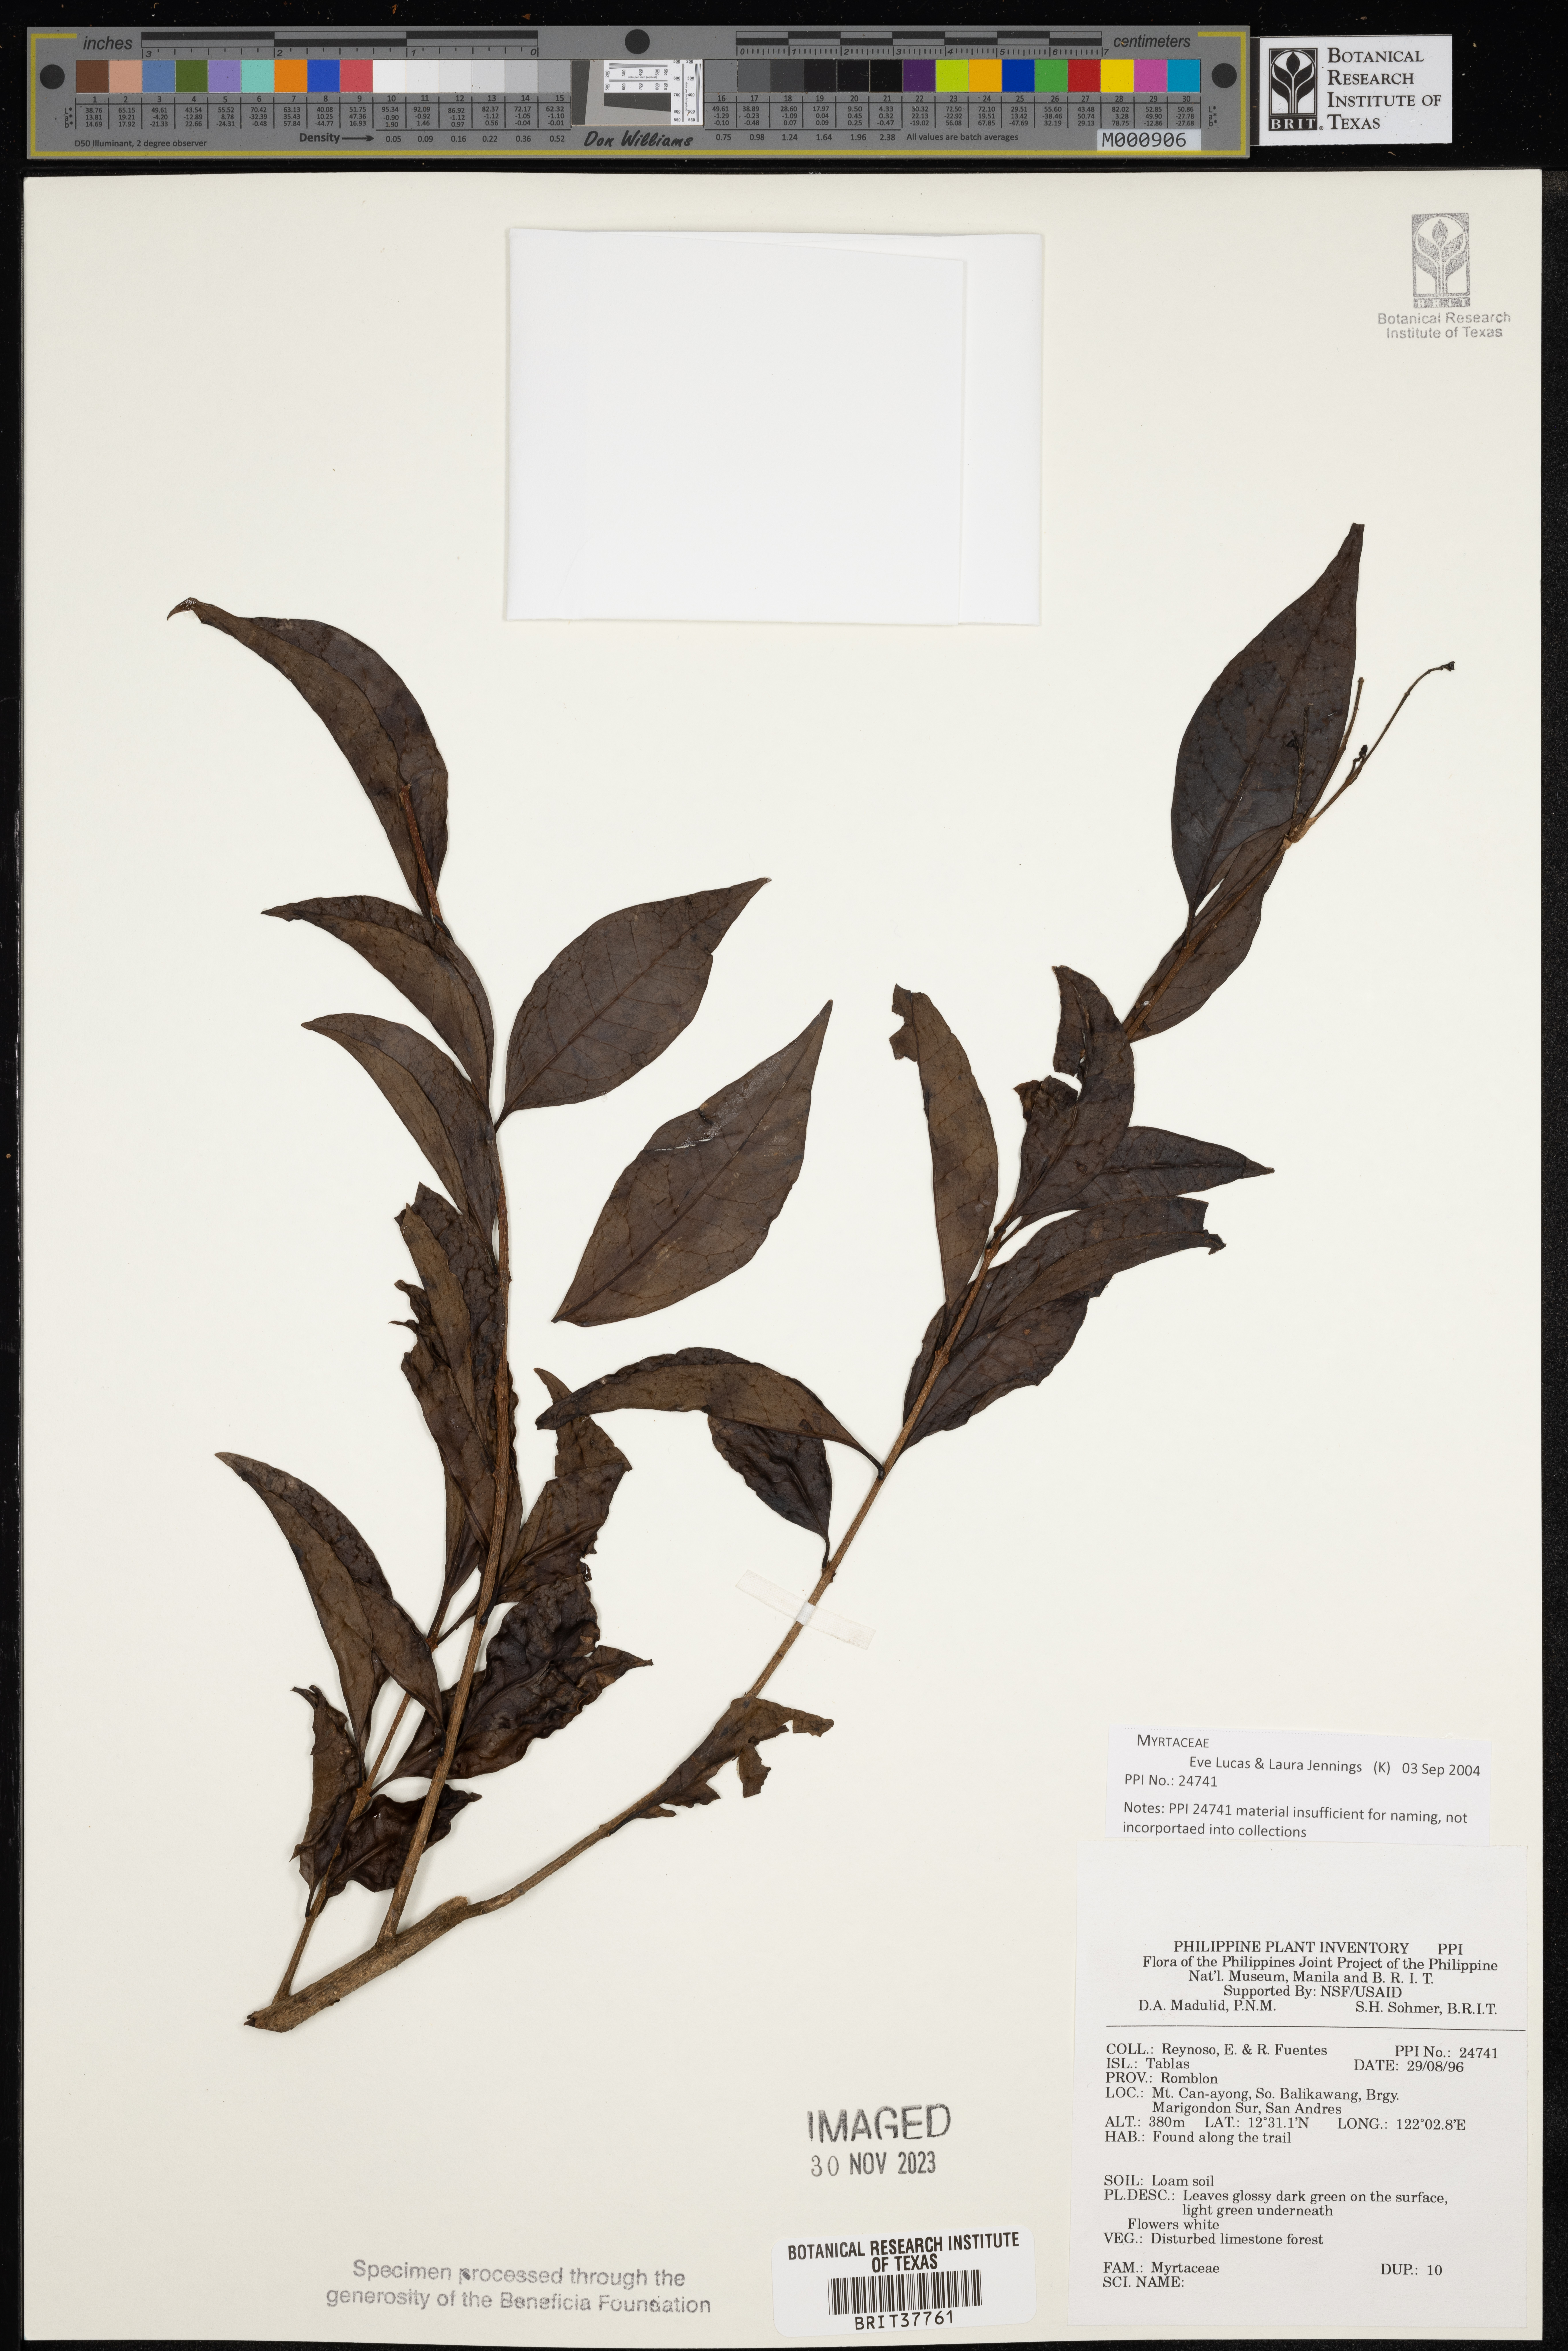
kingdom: Plantae
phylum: Tracheophyta
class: Magnoliopsida
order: Myrtales
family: Myrtaceae
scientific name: Myrtaceae
